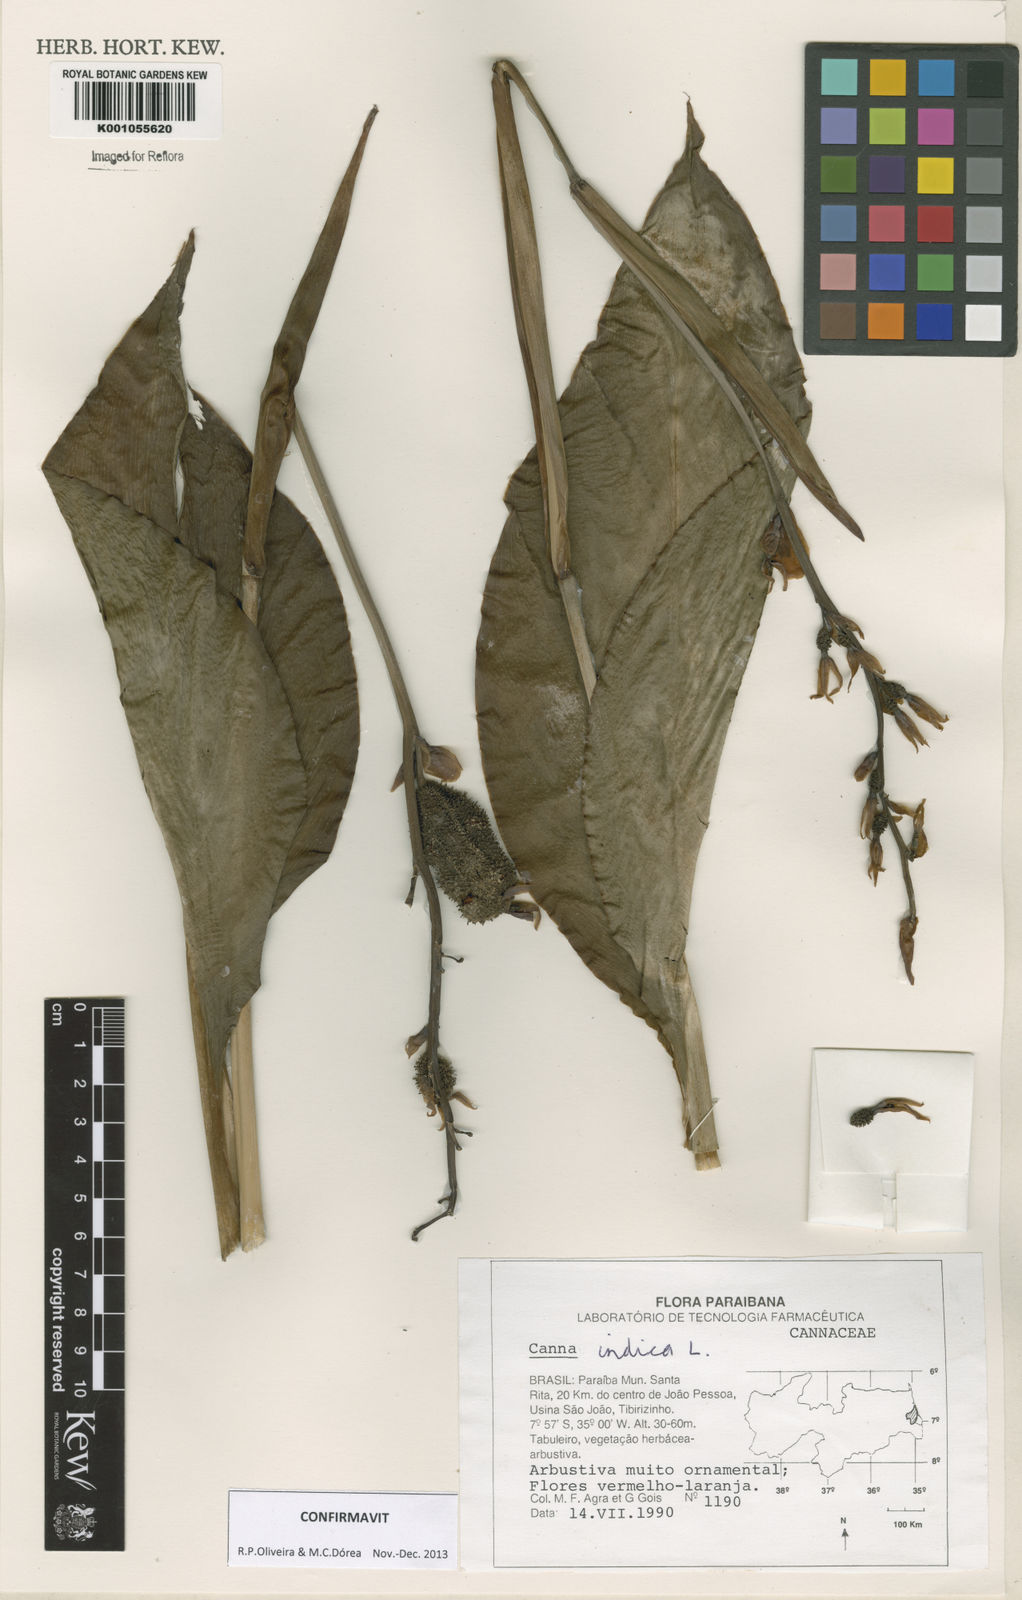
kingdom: Plantae
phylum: Tracheophyta
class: Liliopsida
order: Zingiberales
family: Cannaceae
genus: Canna
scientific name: Canna indica
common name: Indian shot
